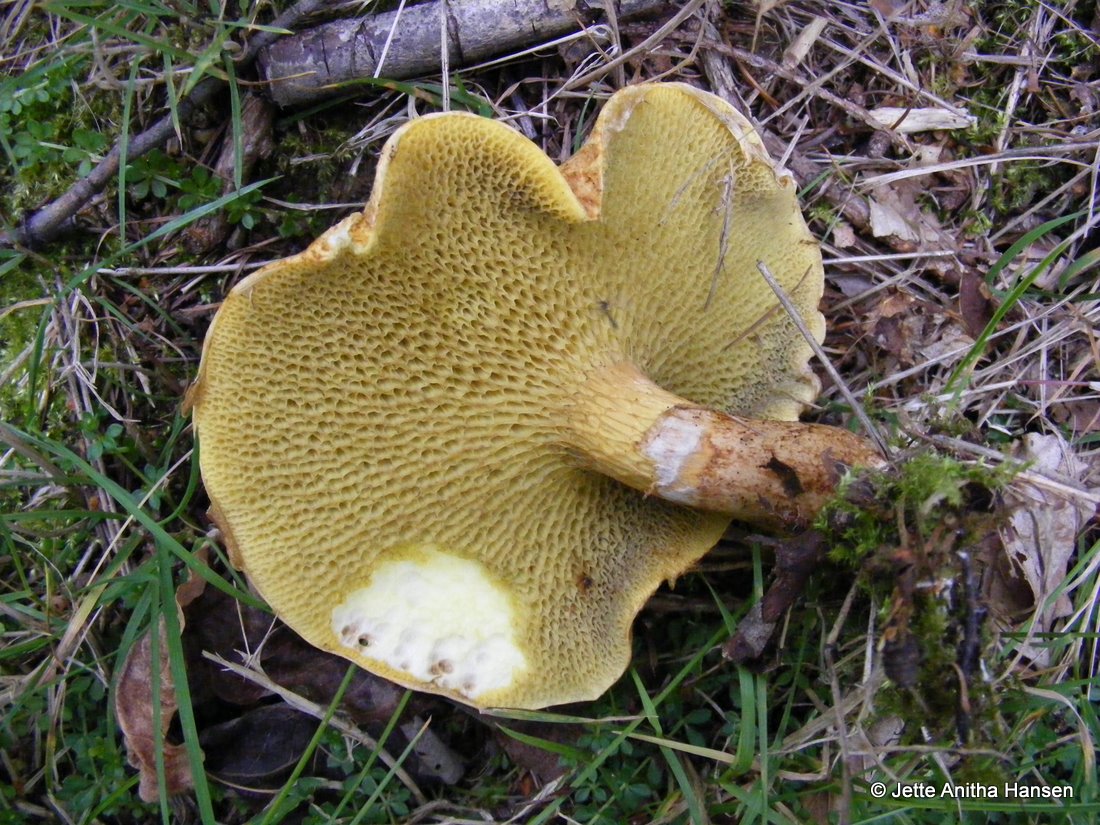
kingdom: Fungi
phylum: Basidiomycota
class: Agaricomycetes
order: Boletales
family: Suillaceae
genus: Suillus
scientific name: Suillus cavipes
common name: hulstokket slimrørhat
